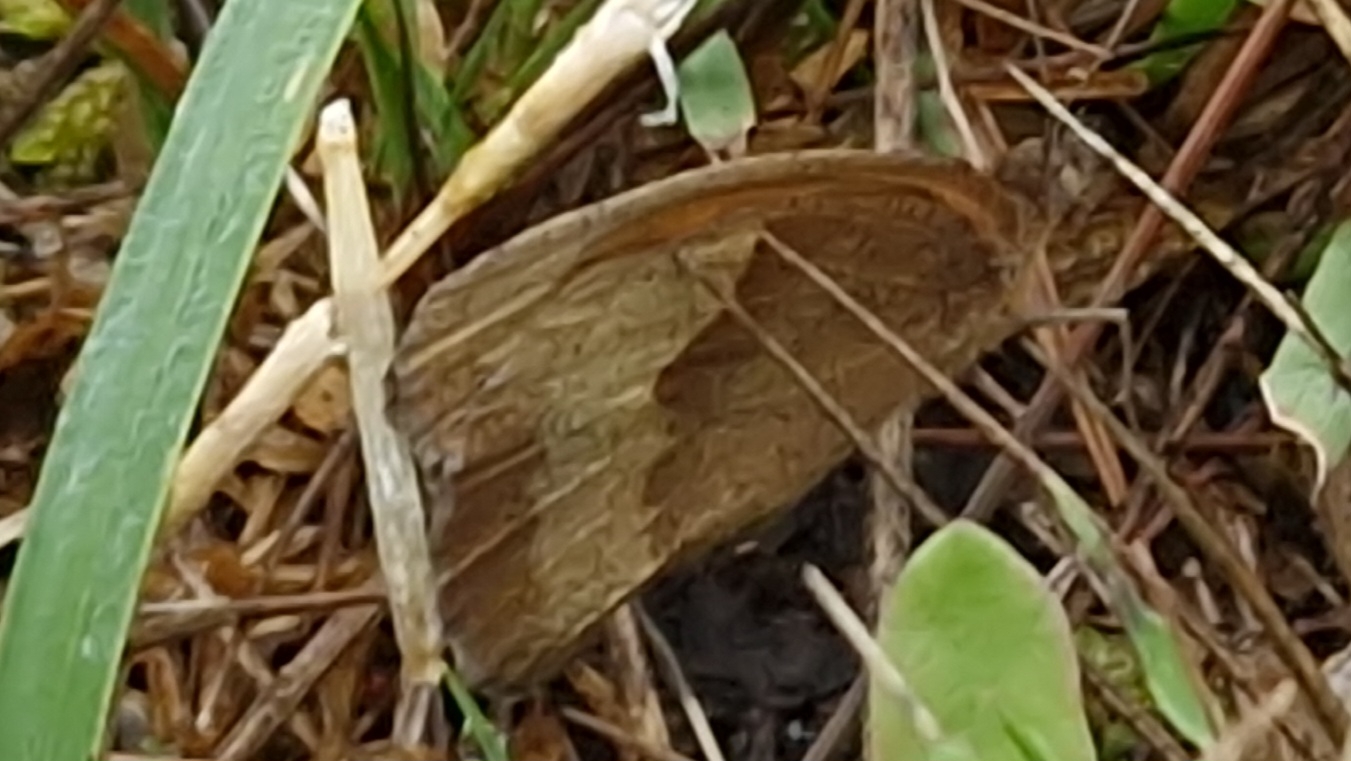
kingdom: Animalia
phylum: Arthropoda
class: Insecta
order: Lepidoptera
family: Nymphalidae
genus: Maniola
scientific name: Maniola jurtina
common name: Græsrandøje
